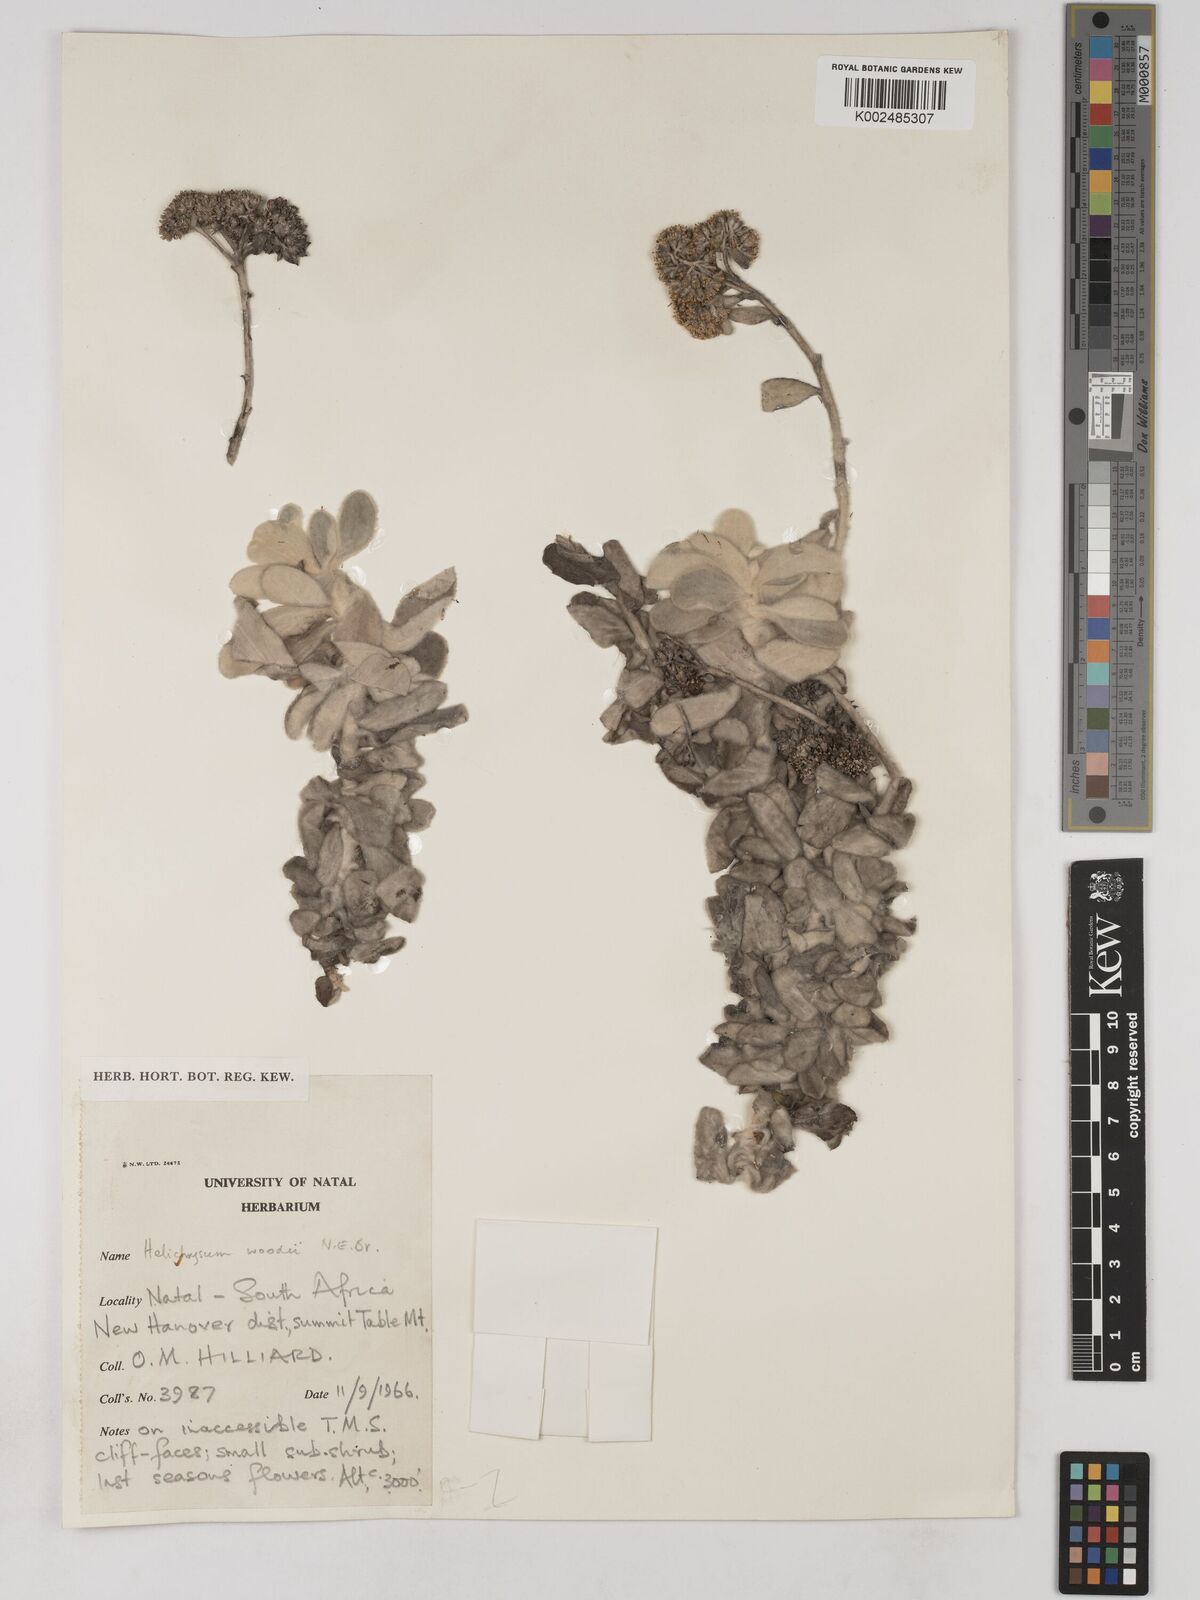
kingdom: Plantae
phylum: Tracheophyta
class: Magnoliopsida
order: Asterales
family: Asteraceae
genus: Helichrysum
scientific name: Helichrysum woodii
